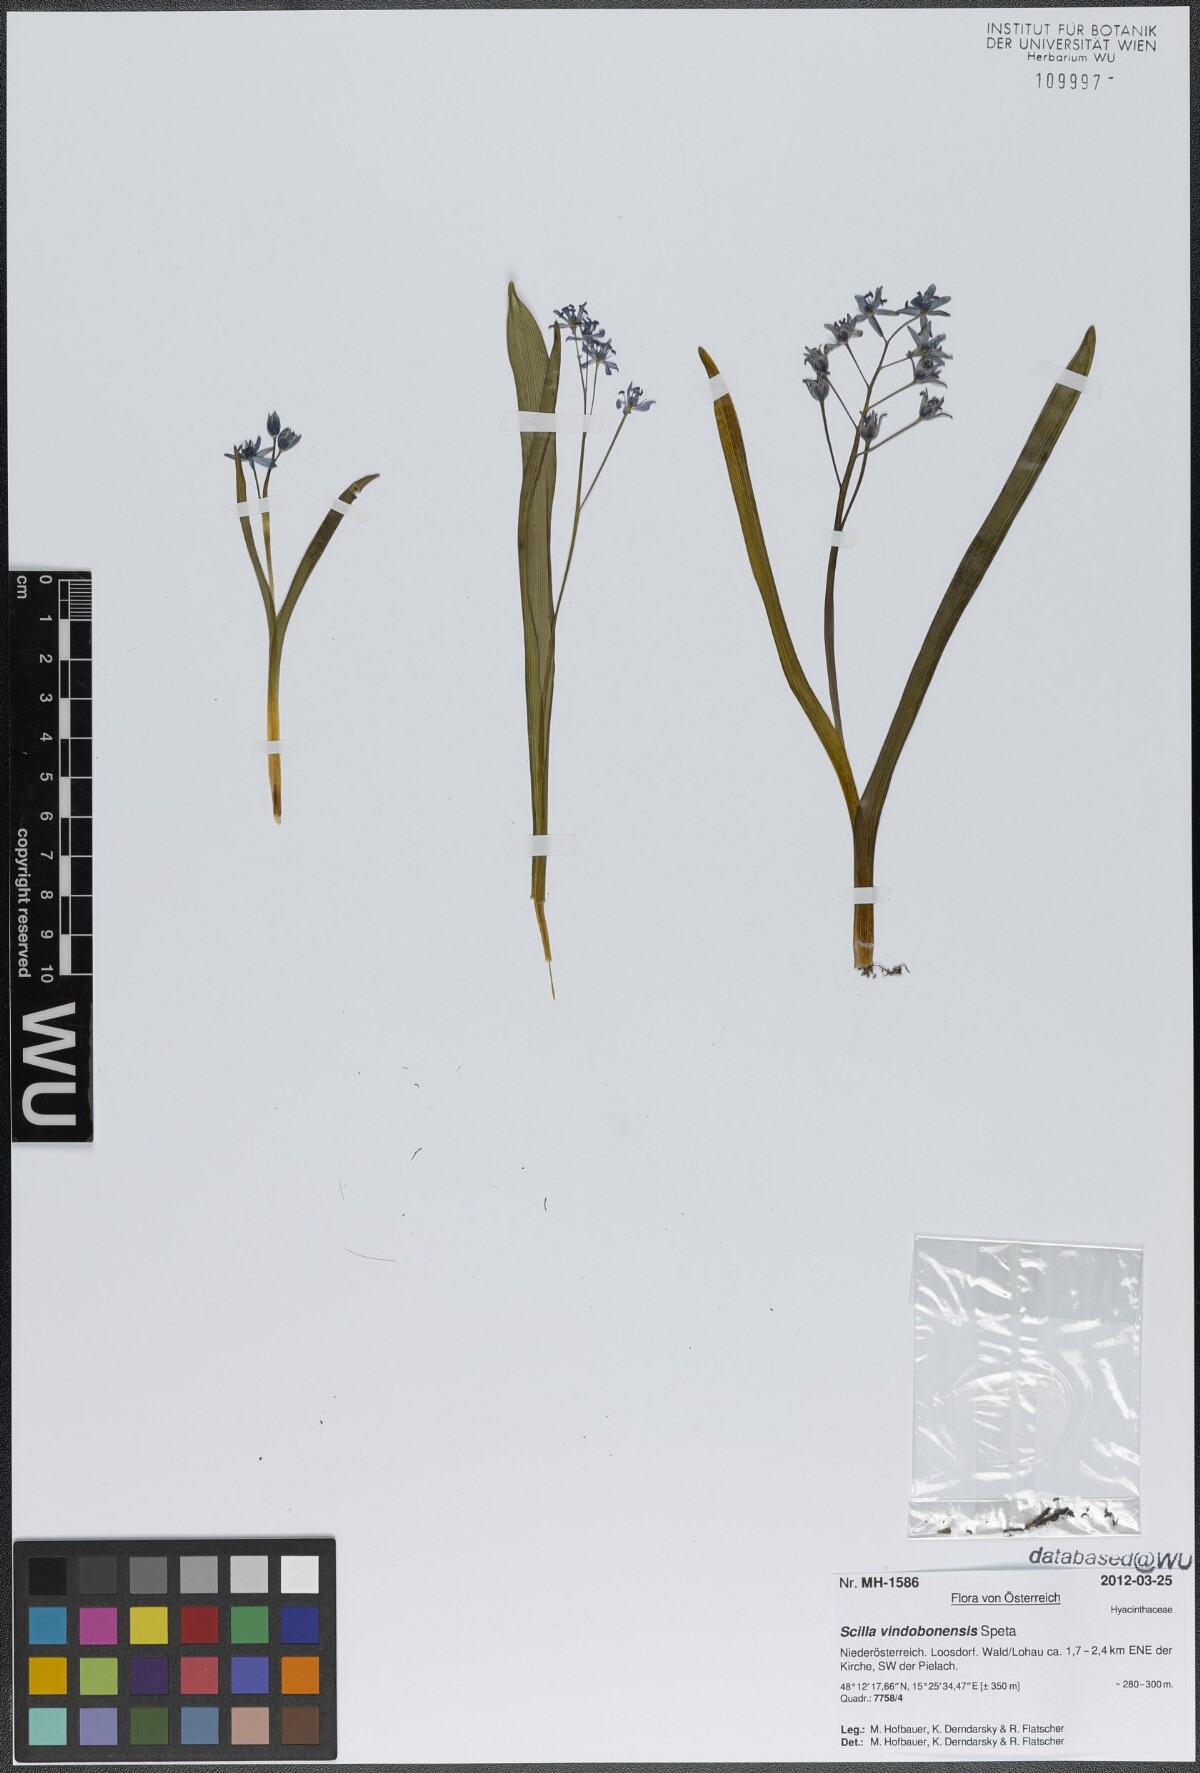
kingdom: Plantae
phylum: Tracheophyta
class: Liliopsida
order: Asparagales
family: Asparagaceae
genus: Scilla
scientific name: Scilla vindobonensis
